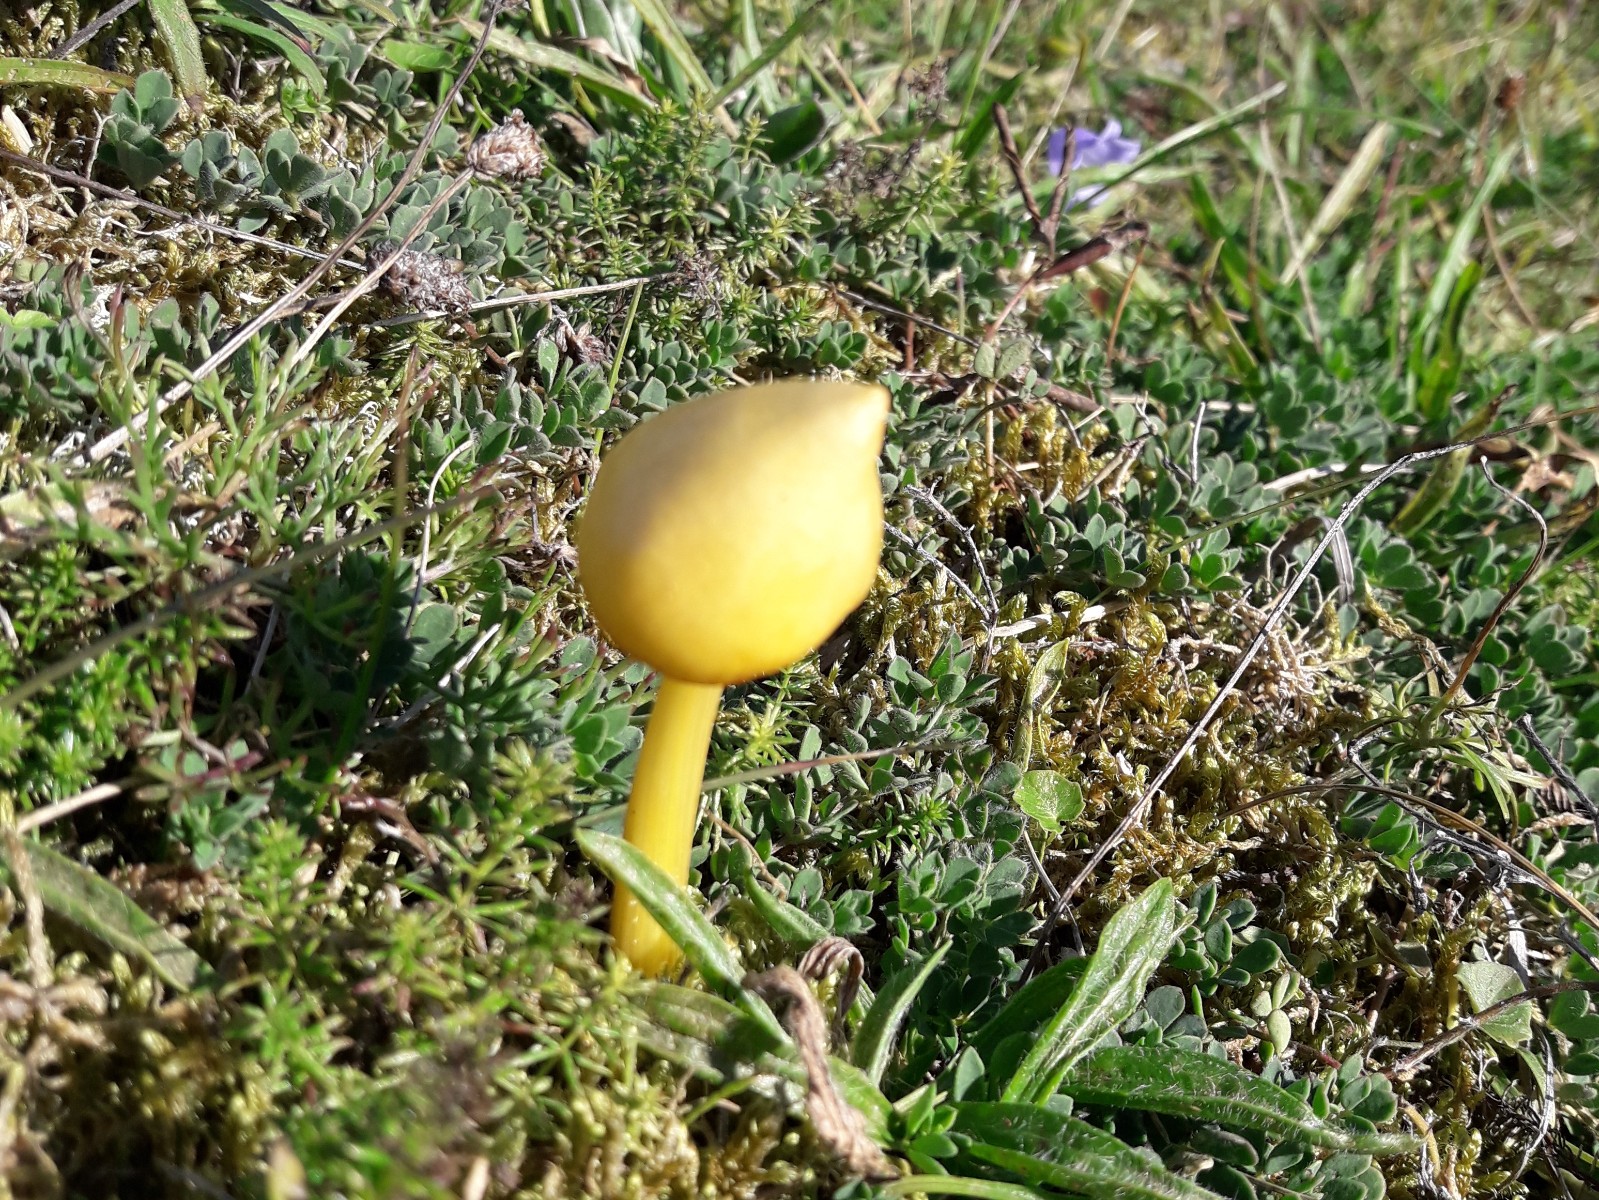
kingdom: Fungi
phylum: Basidiomycota
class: Agaricomycetes
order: Agaricales
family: Hygrophoraceae
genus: Hygrocybe
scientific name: Hygrocybe acutoconica
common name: spidspuklet vokshat
